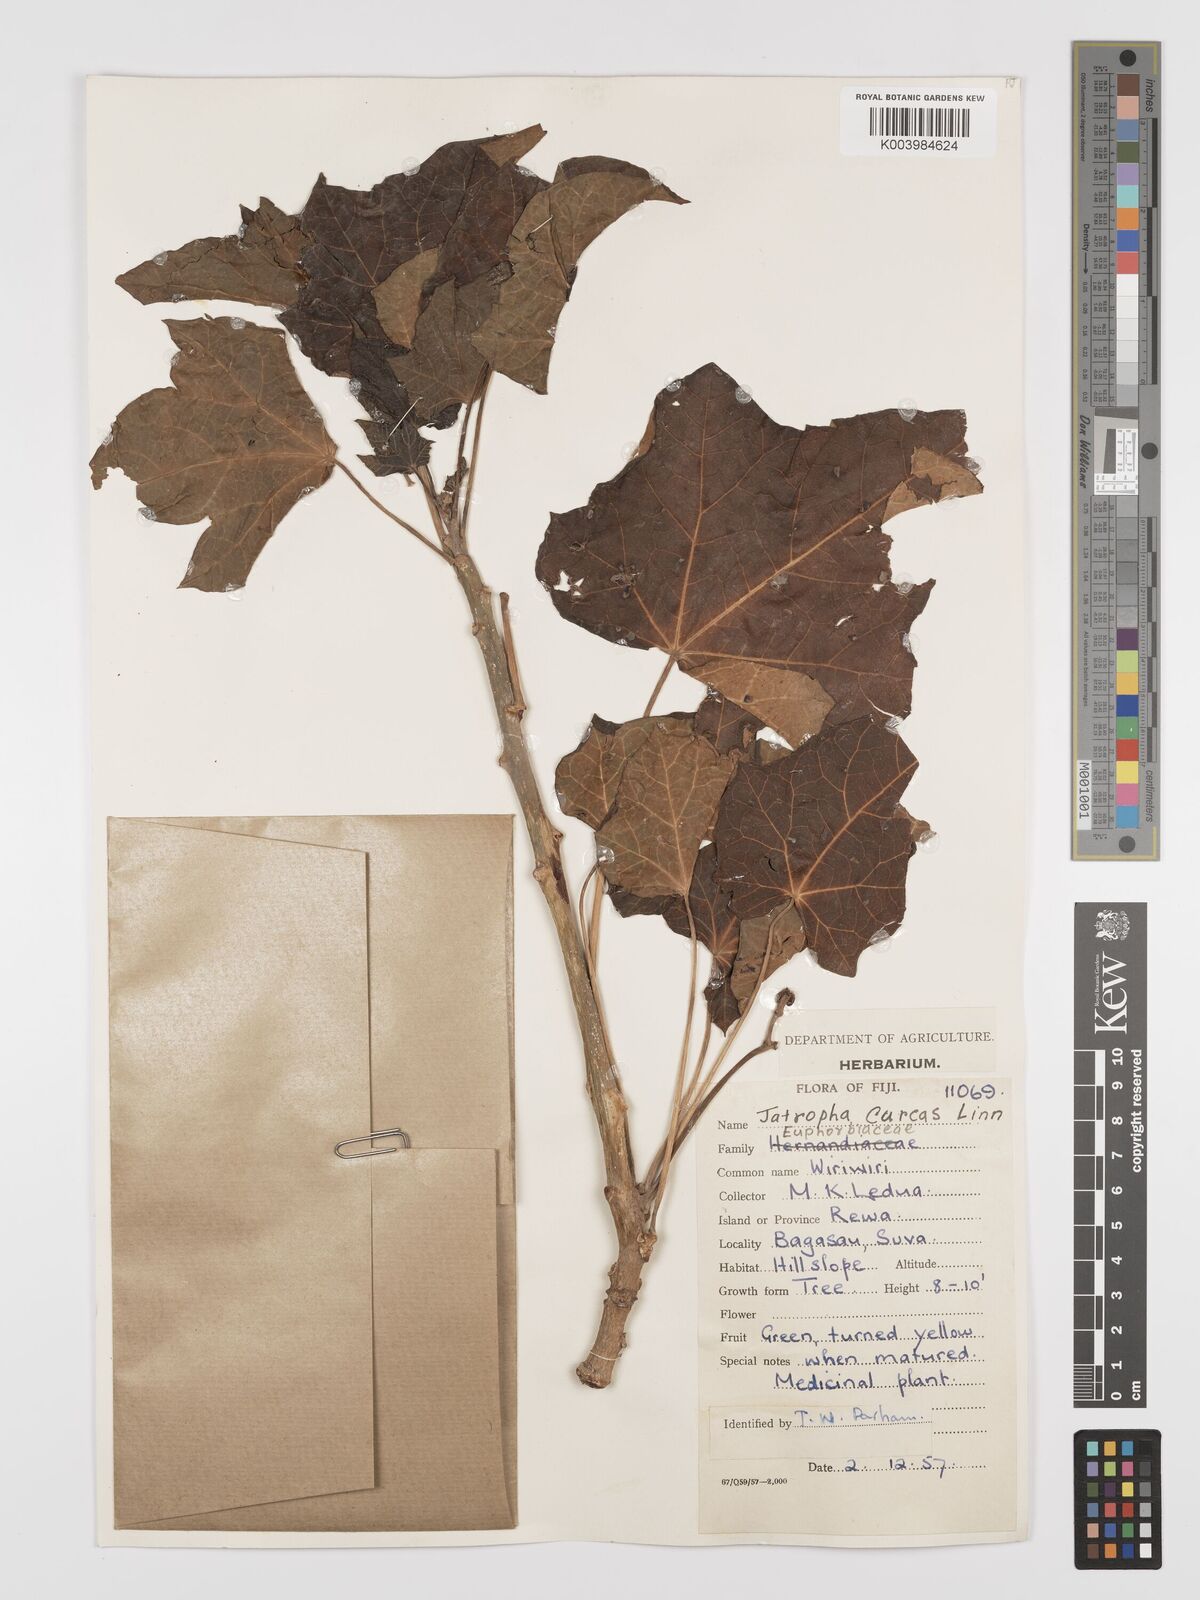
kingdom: Plantae
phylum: Tracheophyta
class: Magnoliopsida
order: Malpighiales
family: Euphorbiaceae
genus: Jatropha
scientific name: Jatropha curcas
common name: Barbados nut
